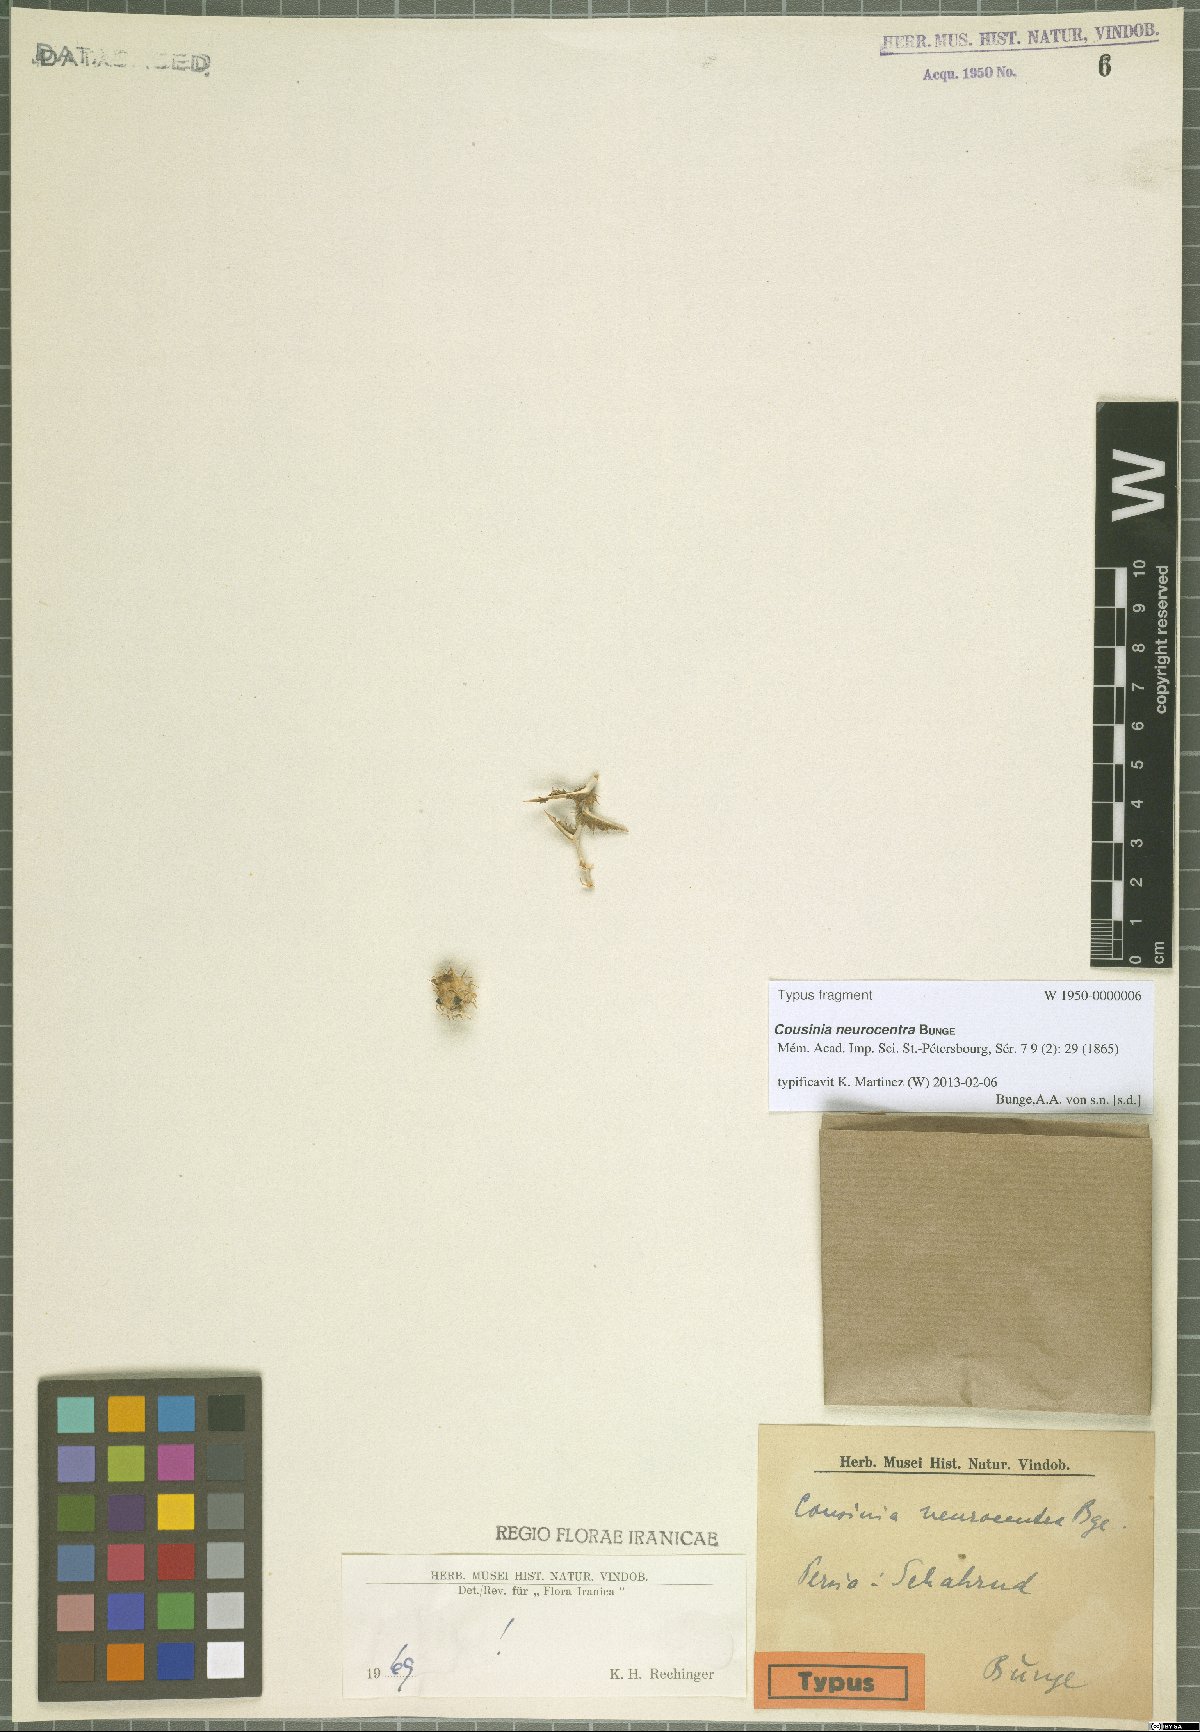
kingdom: Plantae
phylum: Tracheophyta
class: Magnoliopsida
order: Asterales
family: Asteraceae
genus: Cousinia
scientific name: Cousinia neurocentra
